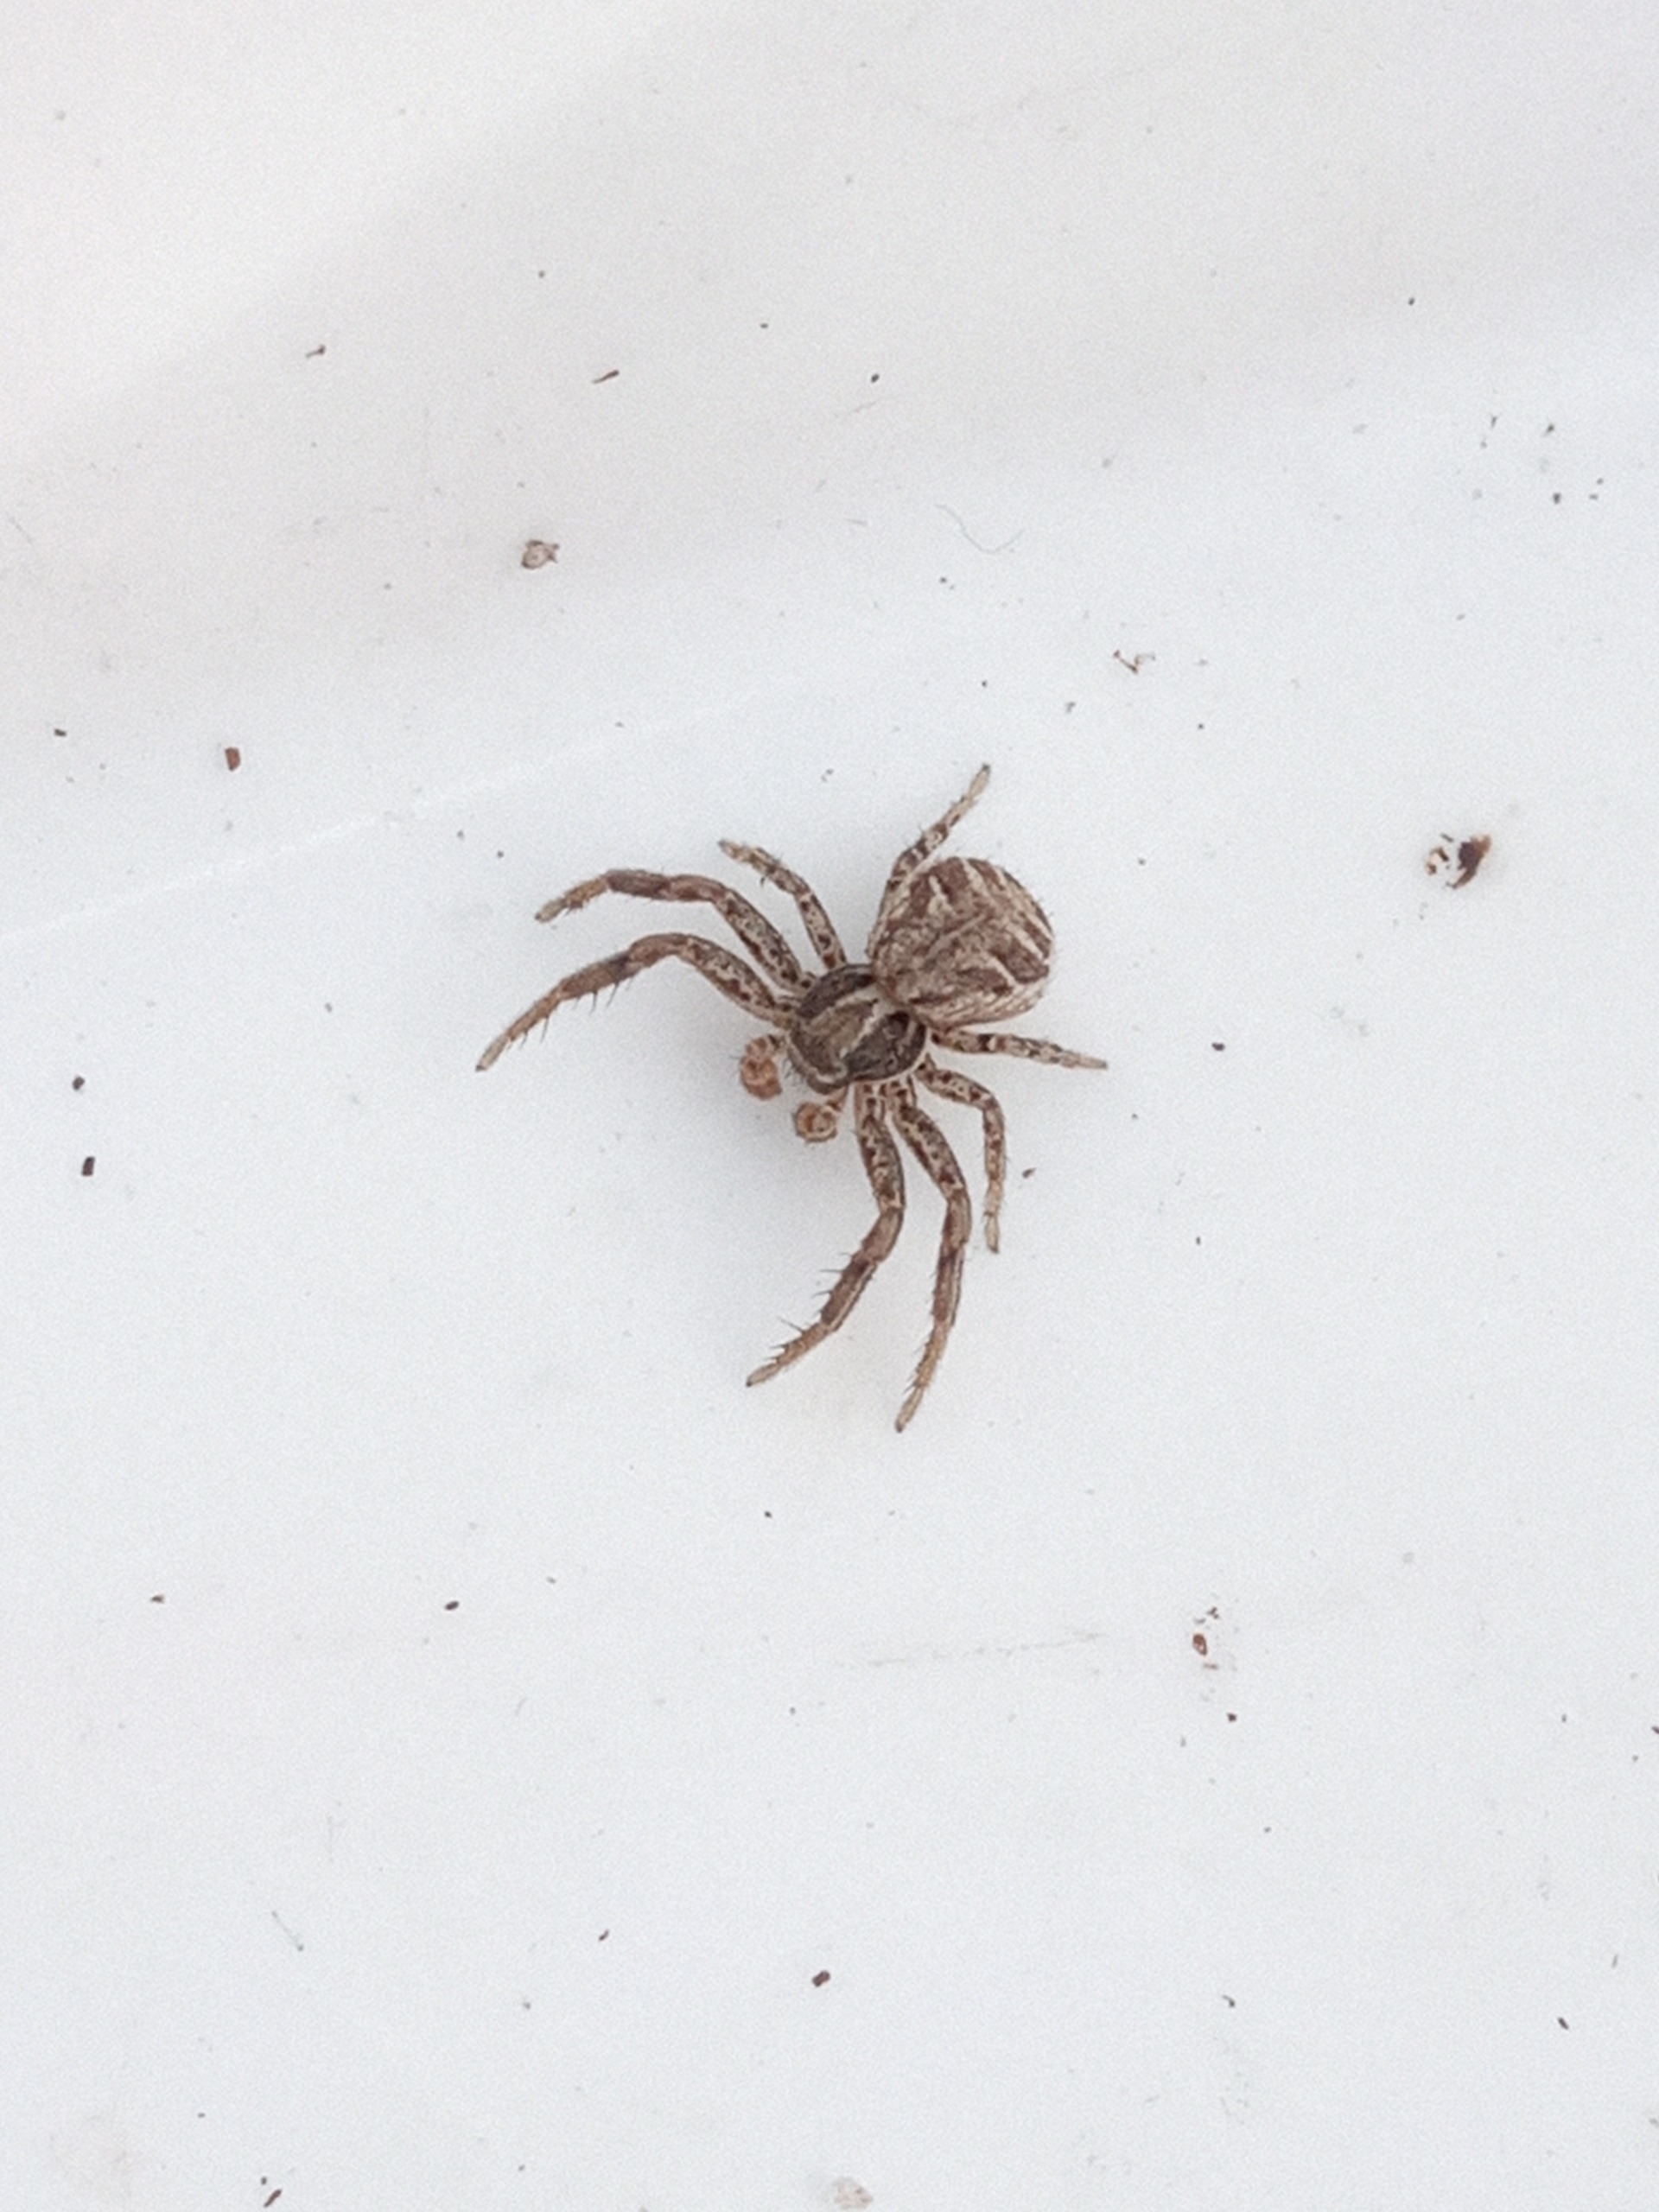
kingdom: Animalia
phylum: Arthropoda
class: Arachnida
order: Araneae
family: Thomisidae
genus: Xysticus
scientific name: Xysticus
